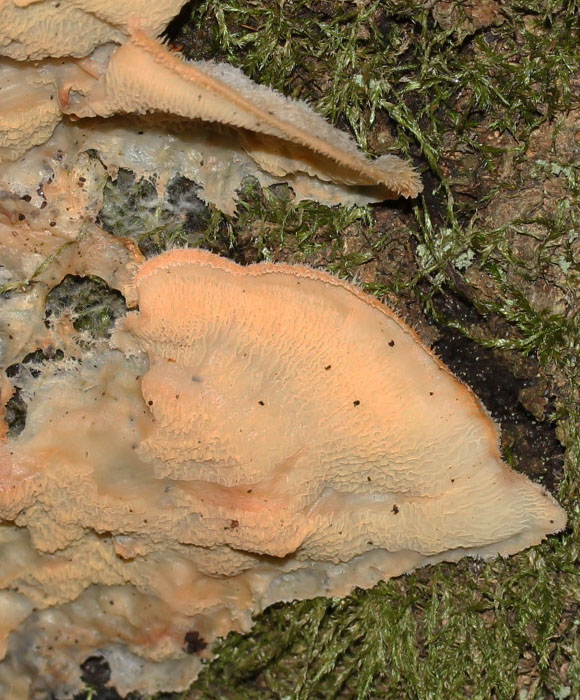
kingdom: Fungi
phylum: Basidiomycota
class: Agaricomycetes
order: Polyporales
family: Meruliaceae
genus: Phlebia
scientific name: Phlebia tremellosa
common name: bævrende åresvamp
